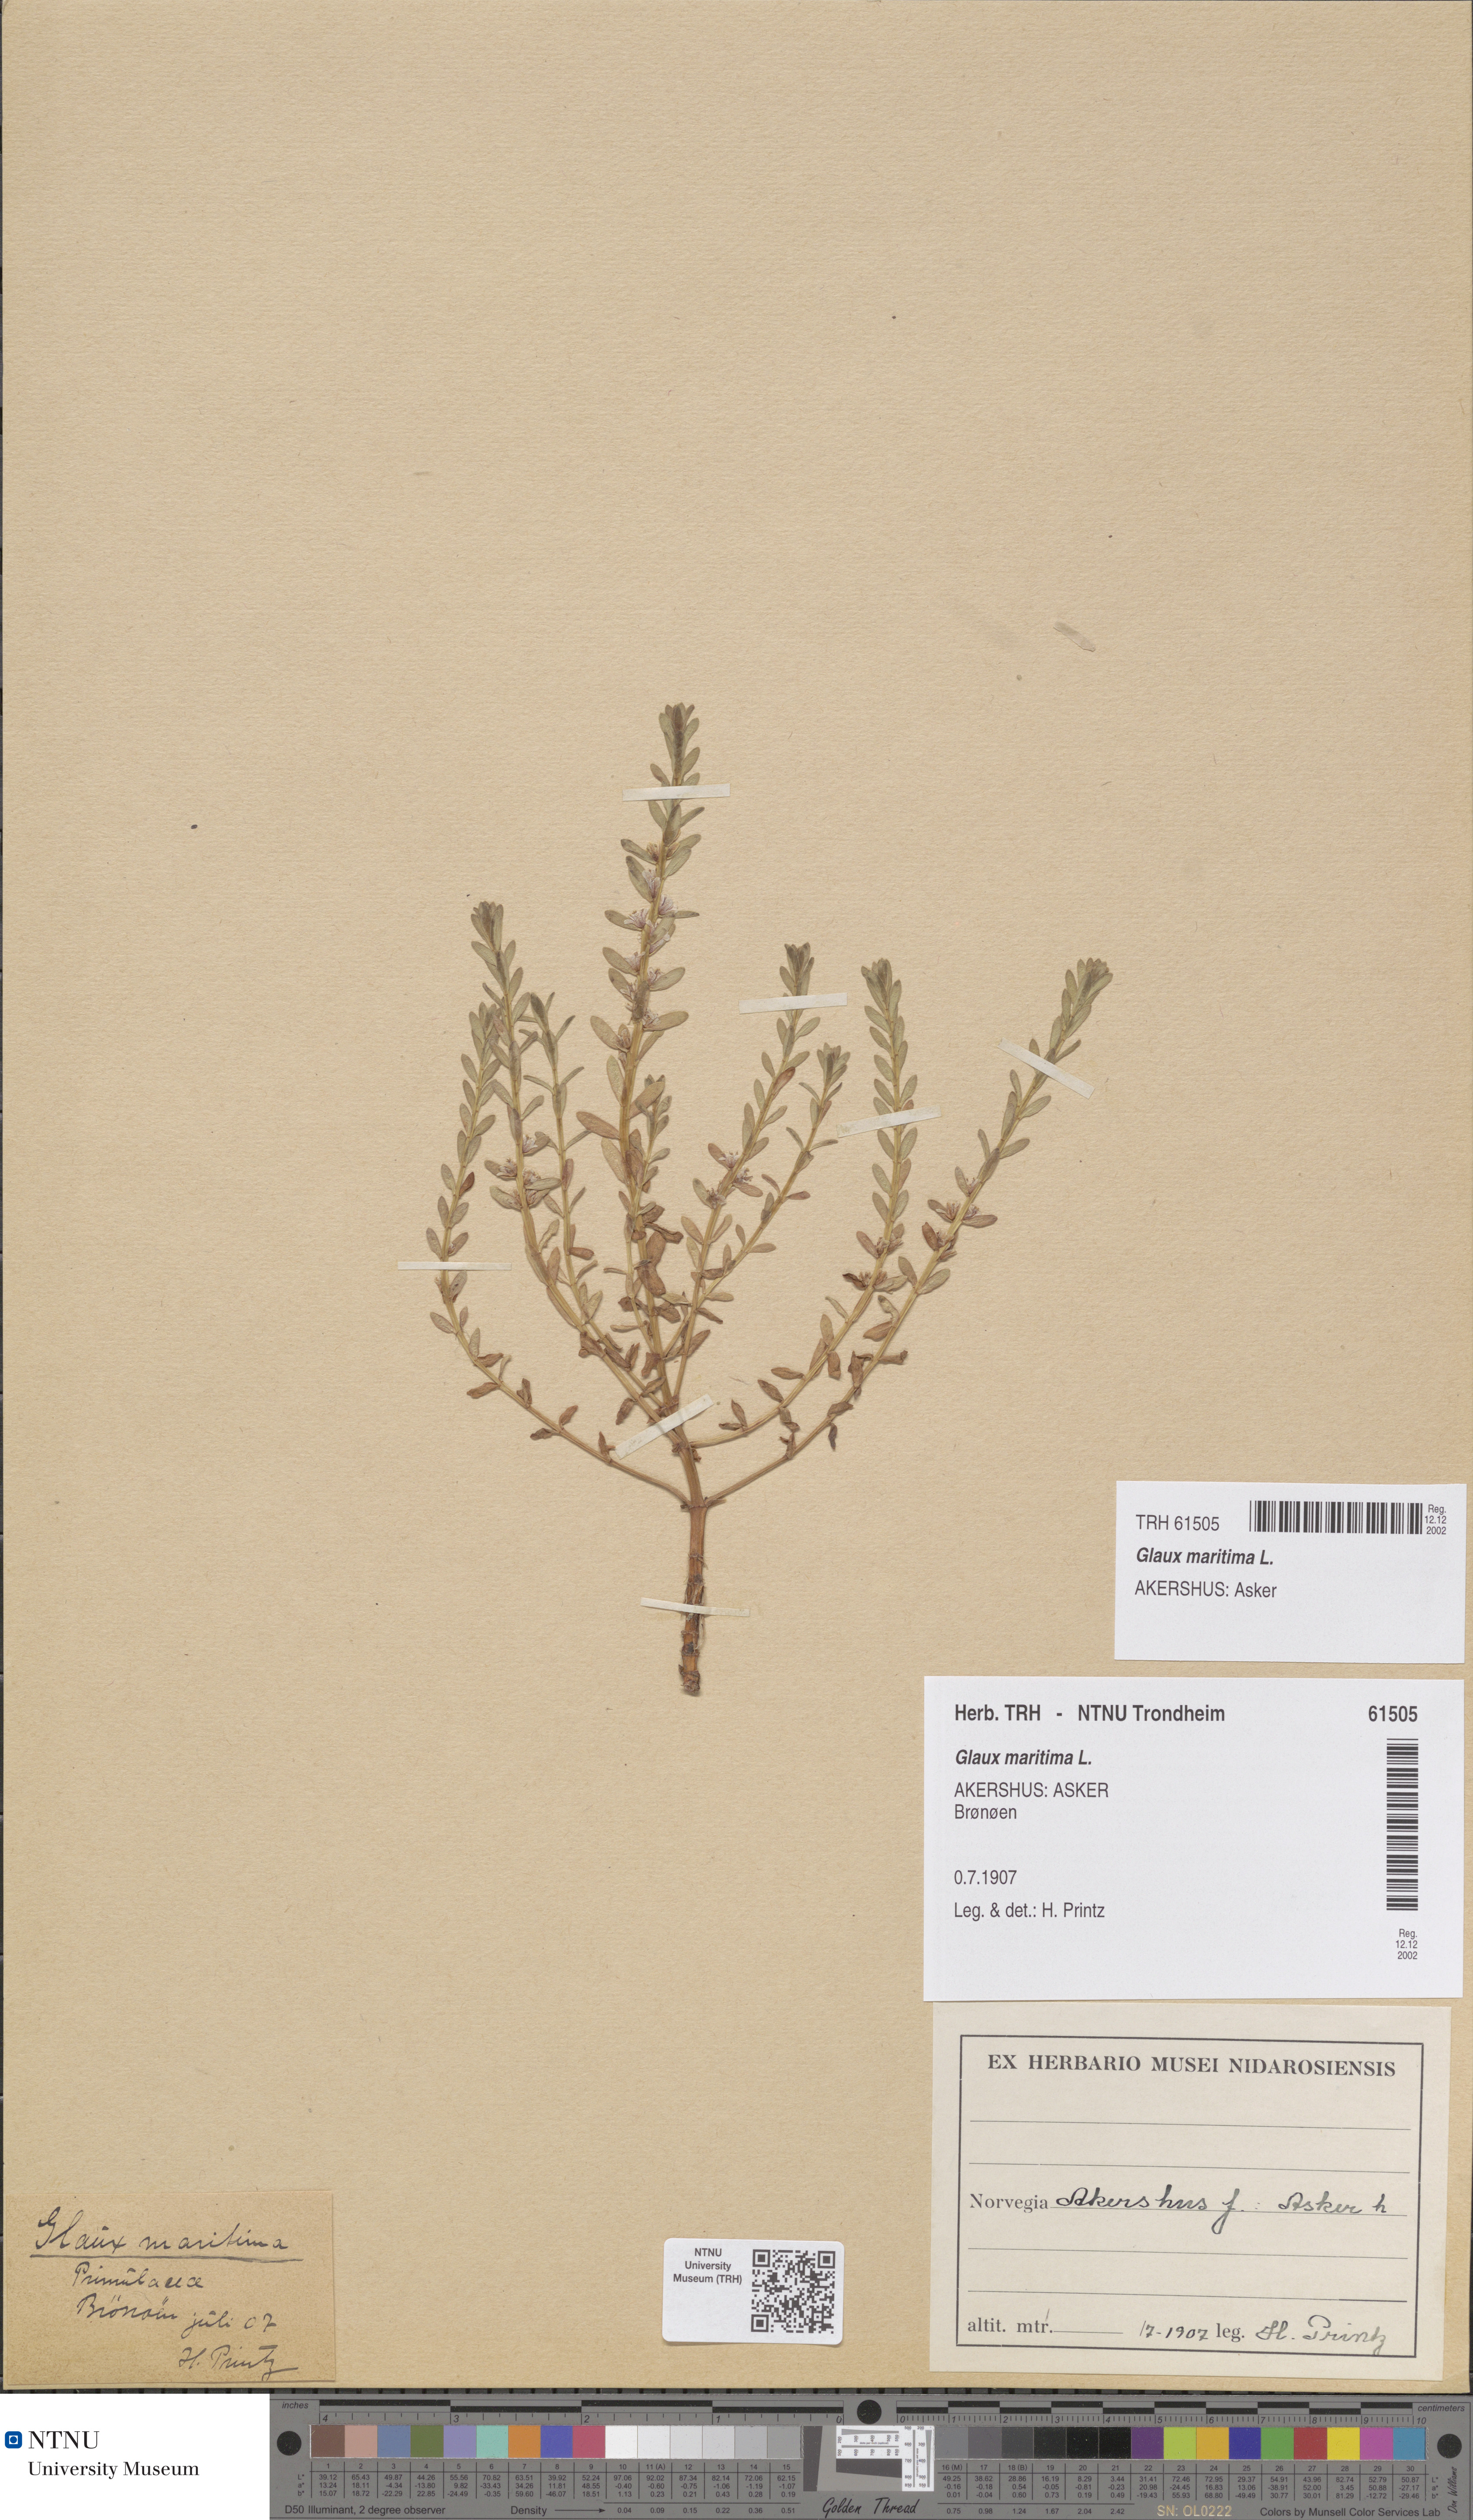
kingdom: Plantae
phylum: Tracheophyta
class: Magnoliopsida
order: Ericales
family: Primulaceae
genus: Lysimachia
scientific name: Lysimachia maritima
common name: Sea milkwort
